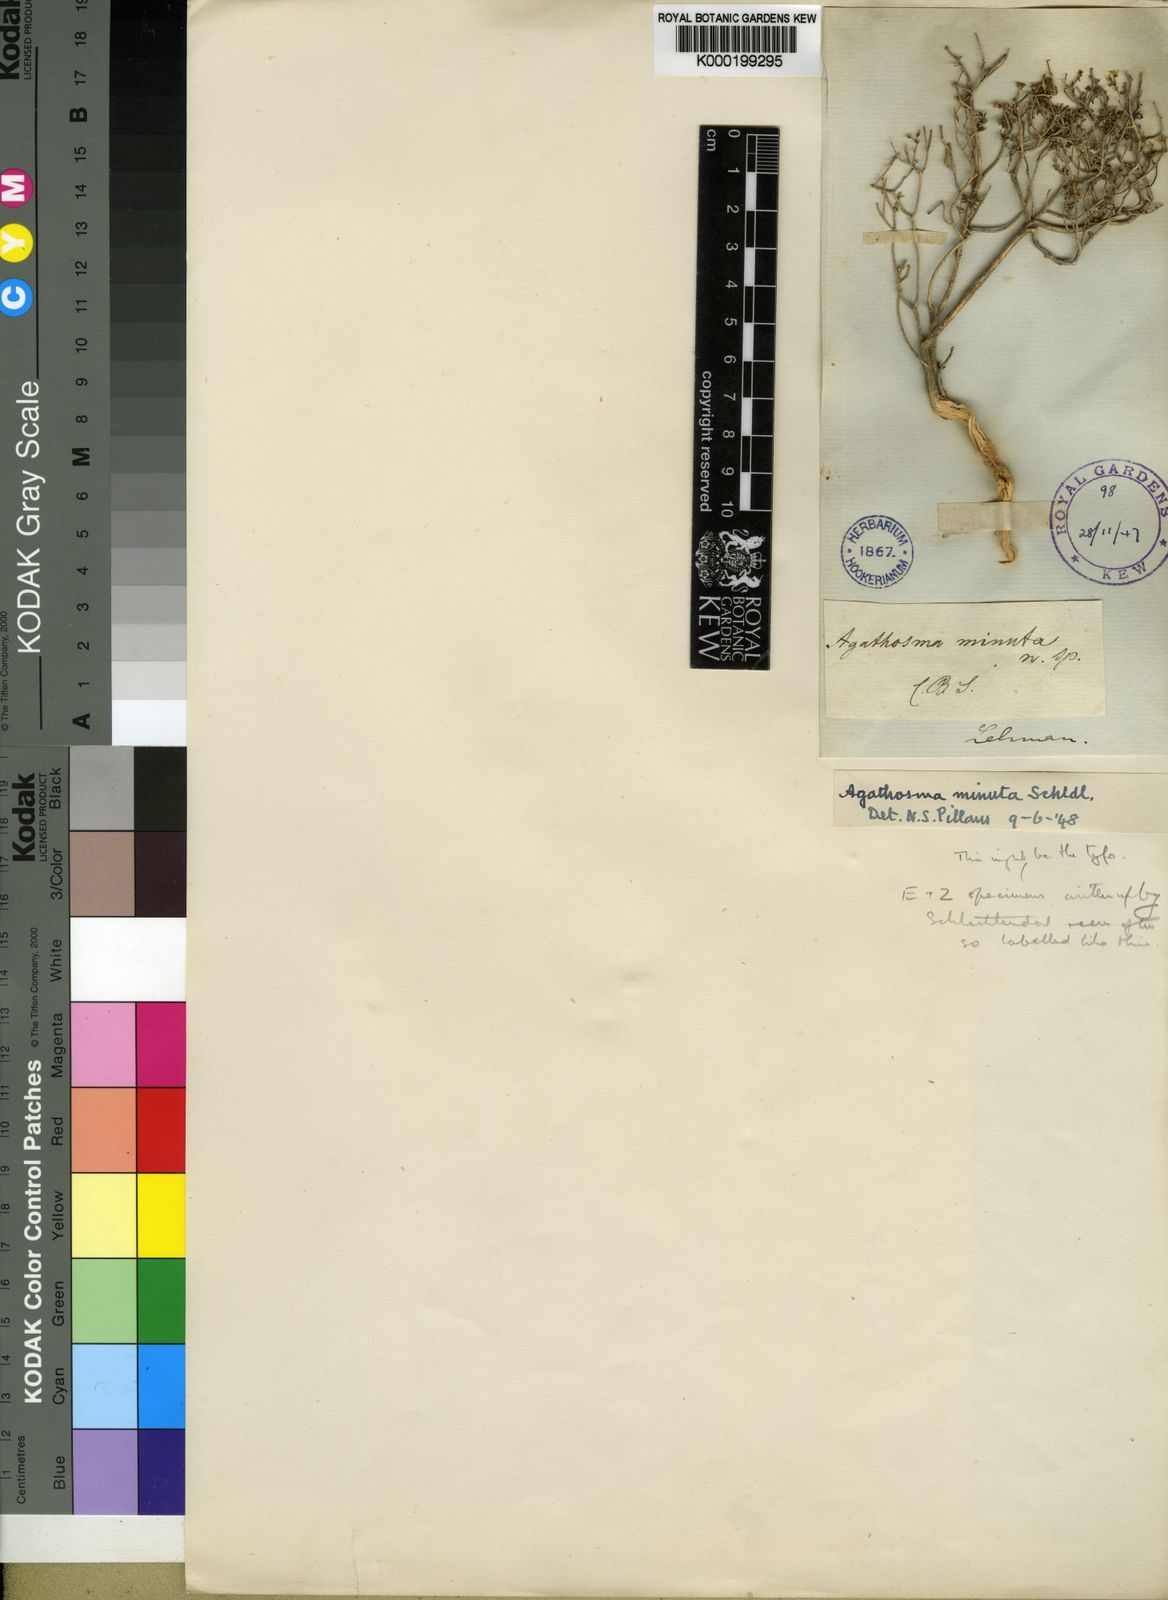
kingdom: Plantae
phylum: Tracheophyta
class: Magnoliopsida
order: Sapindales
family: Rutaceae
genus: Agathosma
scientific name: Agathosma minuta
